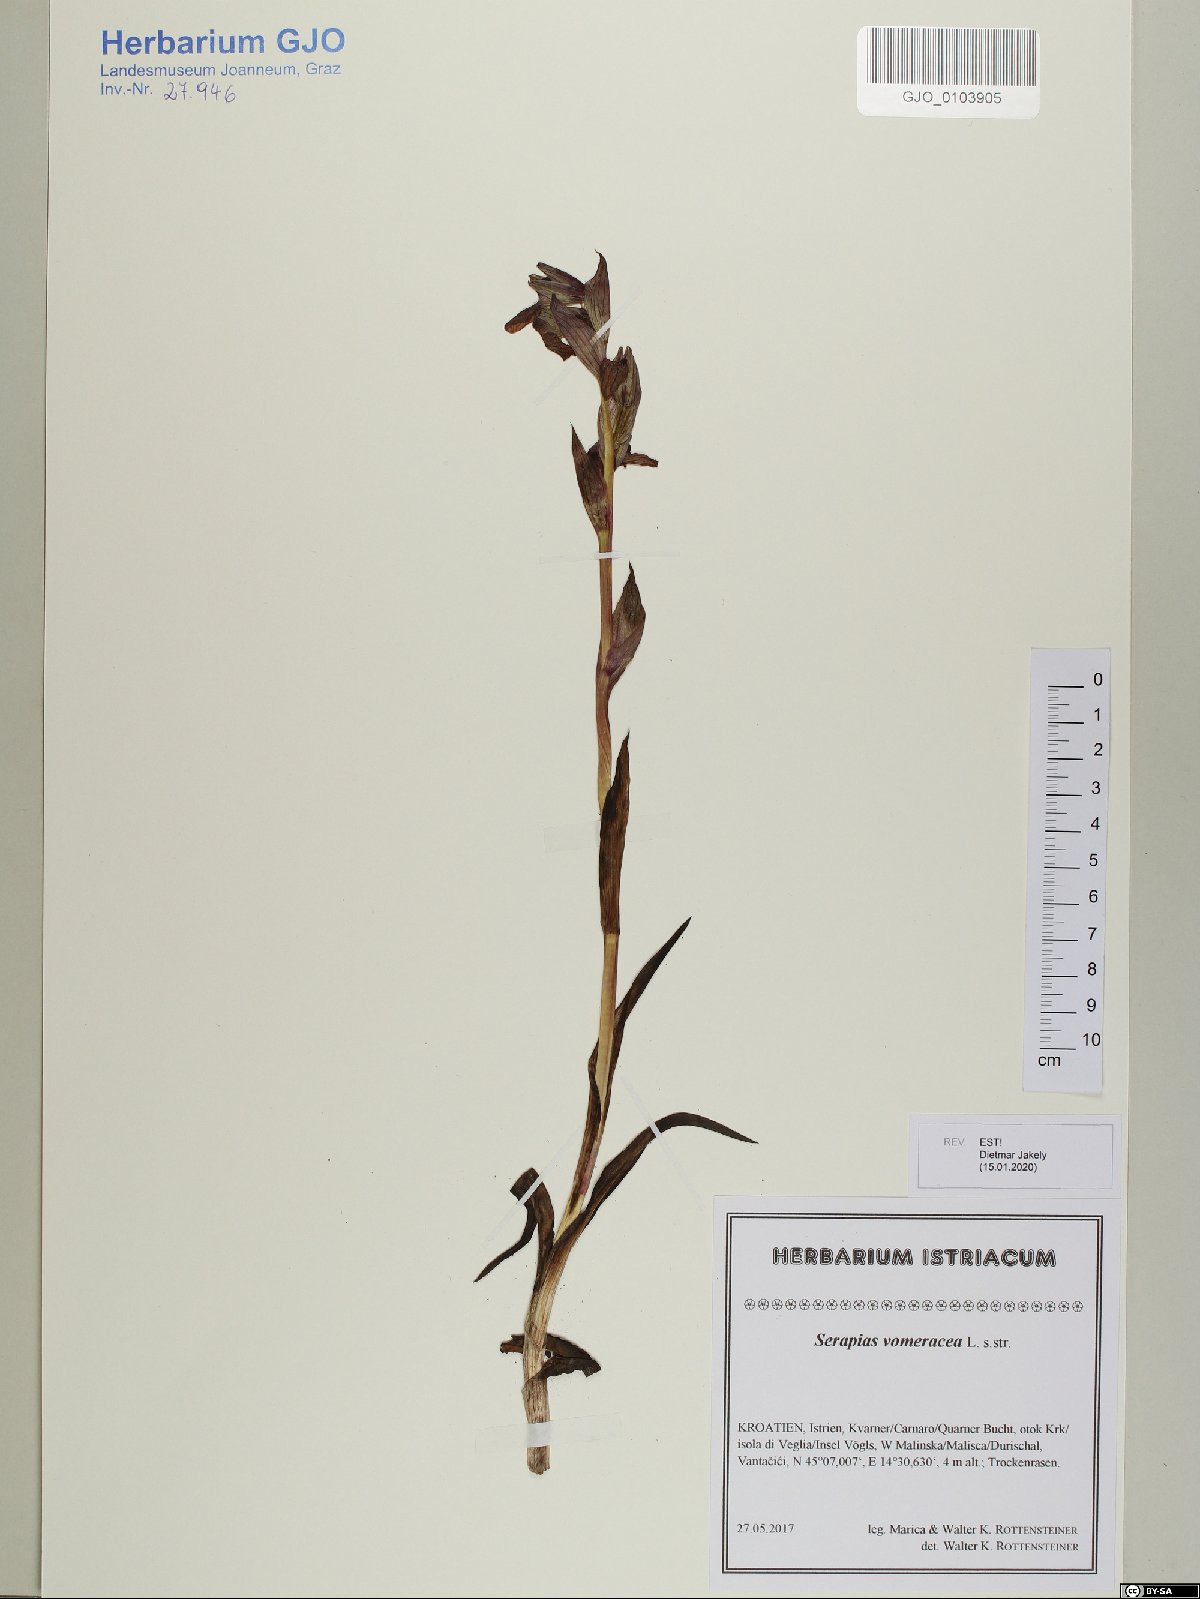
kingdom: Plantae
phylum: Tracheophyta
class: Liliopsida
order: Asparagales
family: Orchidaceae
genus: Serapias
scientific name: Serapias vomeracea
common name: Long-lipped tongue-orchid
